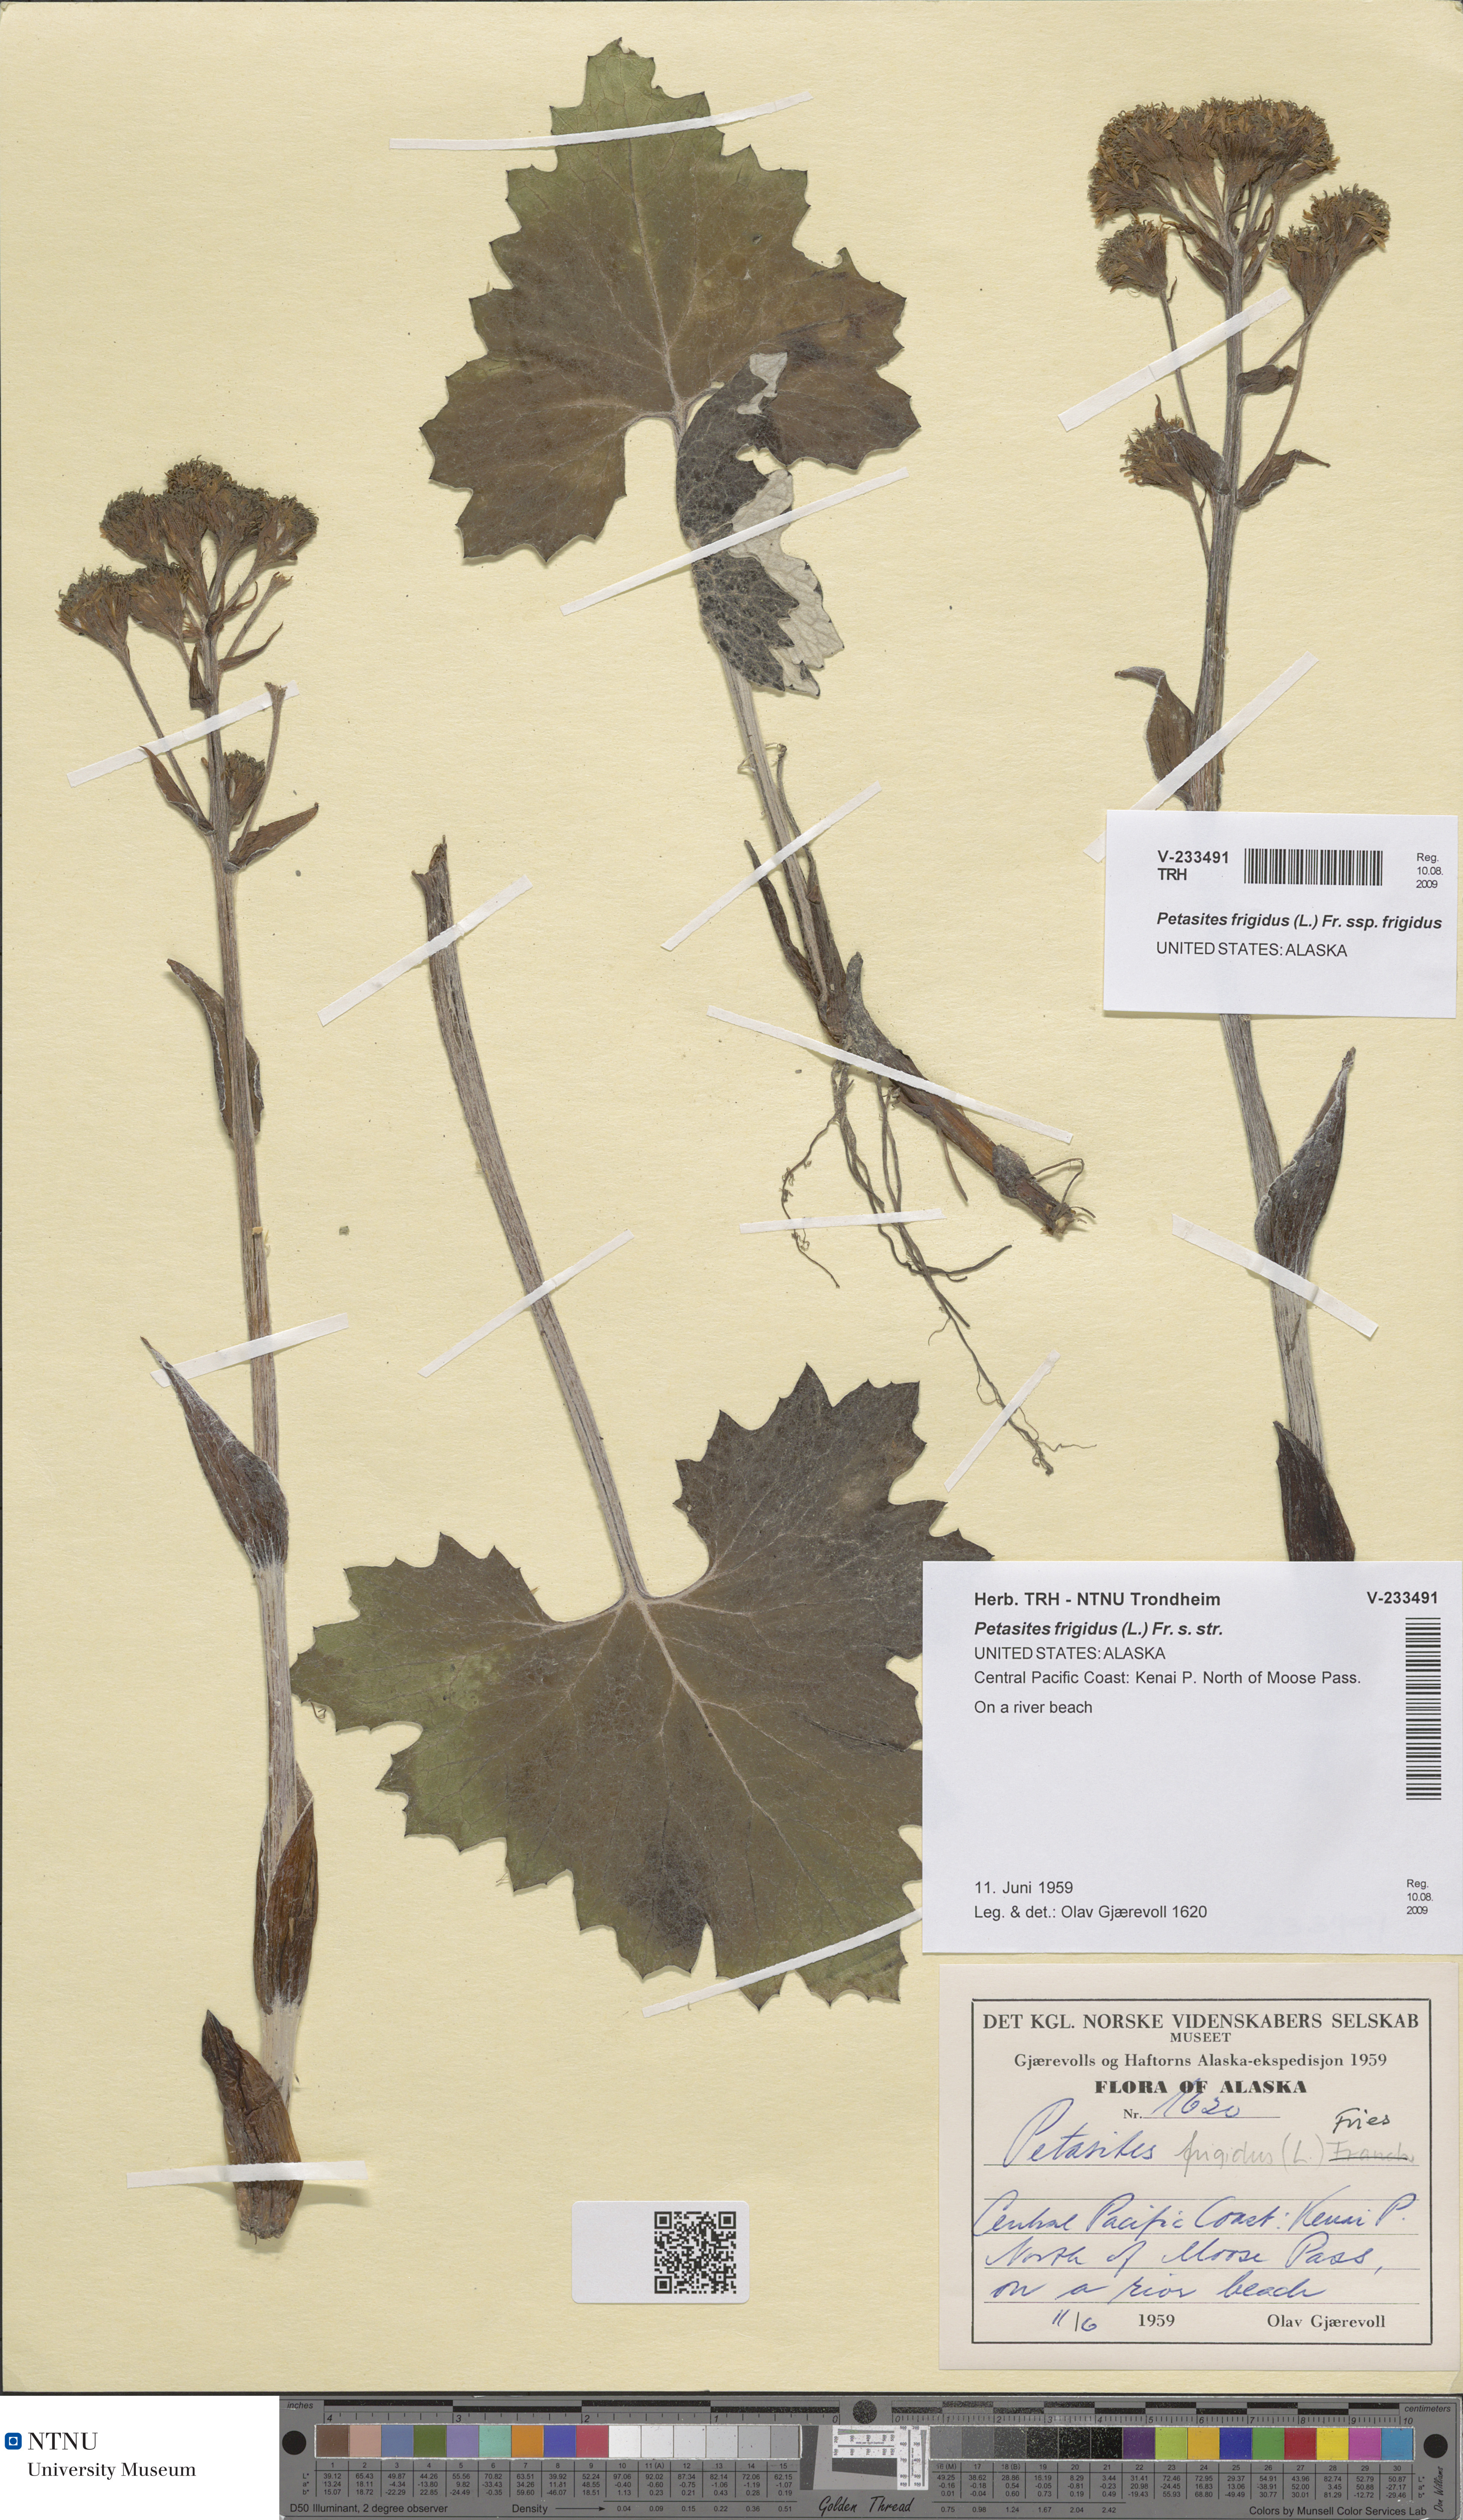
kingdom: Plantae
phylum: Tracheophyta
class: Magnoliopsida
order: Asterales
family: Asteraceae
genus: Petasites
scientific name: Petasites frigidus
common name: Arctic butterbur
